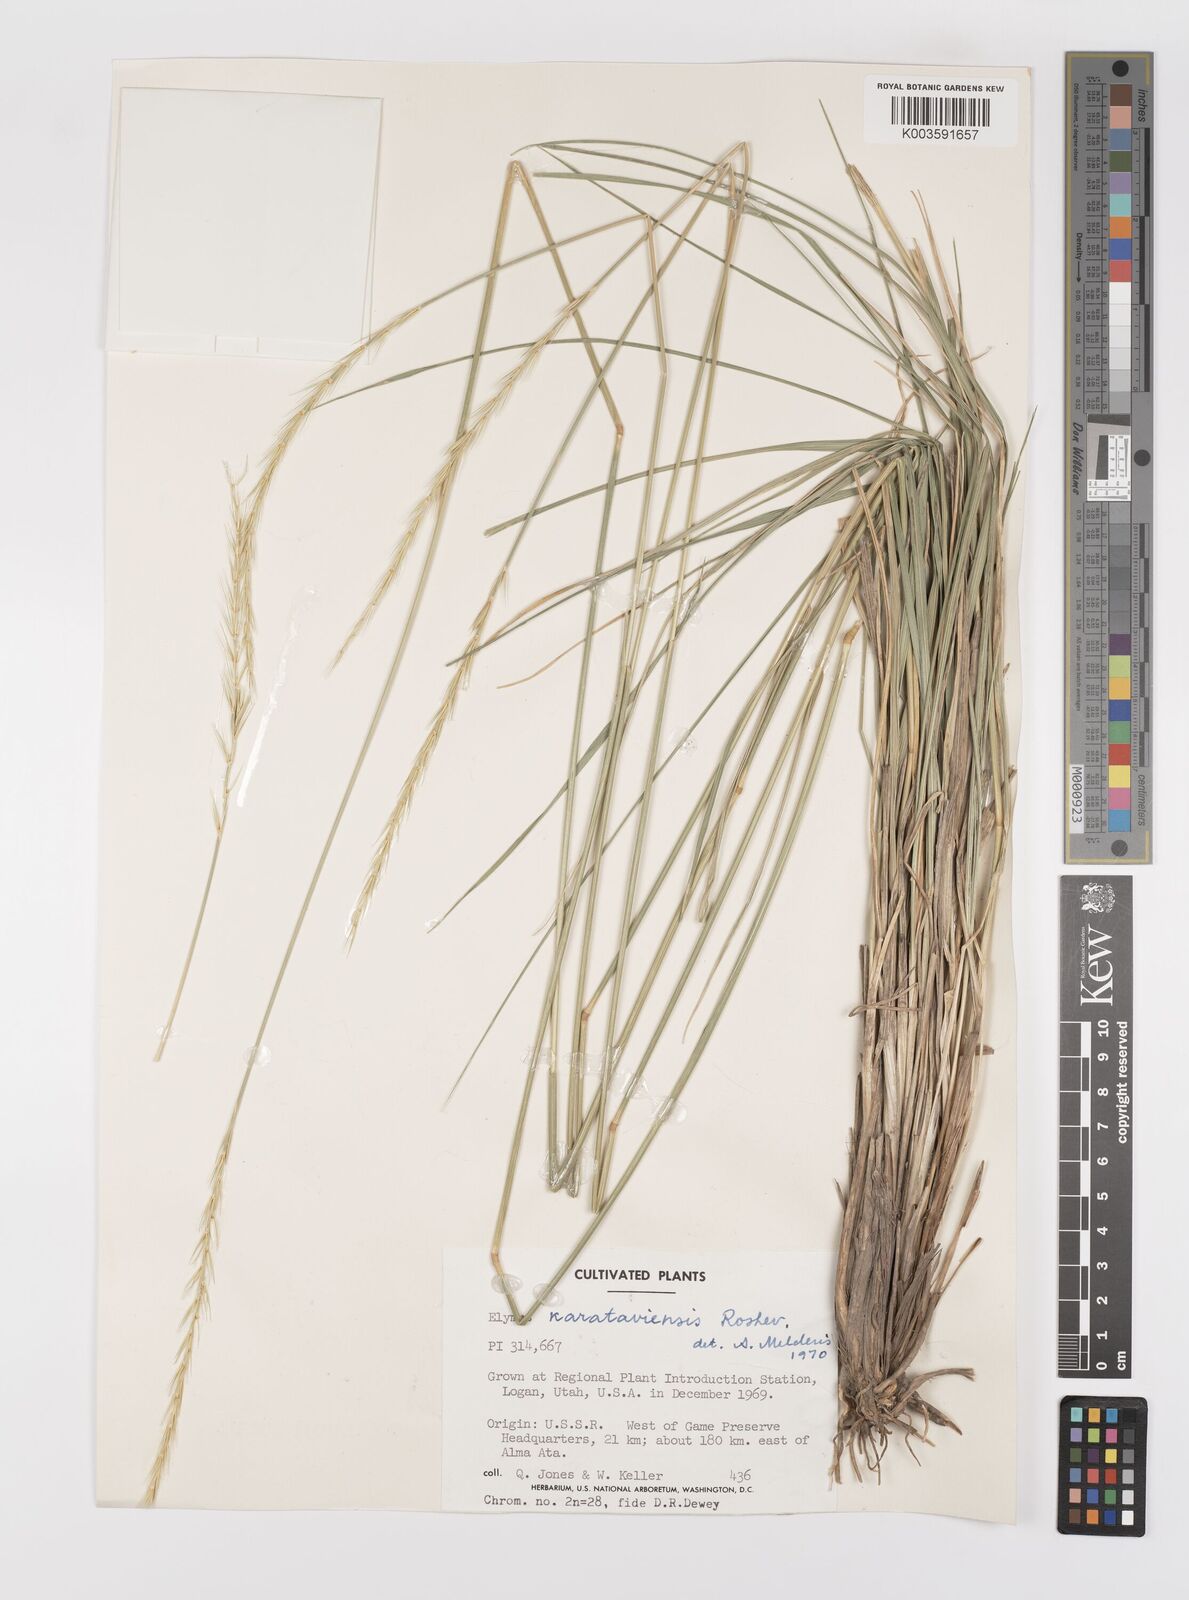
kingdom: Plantae
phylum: Tracheophyta
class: Liliopsida
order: Poales
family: Poaceae
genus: Leymus
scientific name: Leymus alaicus
